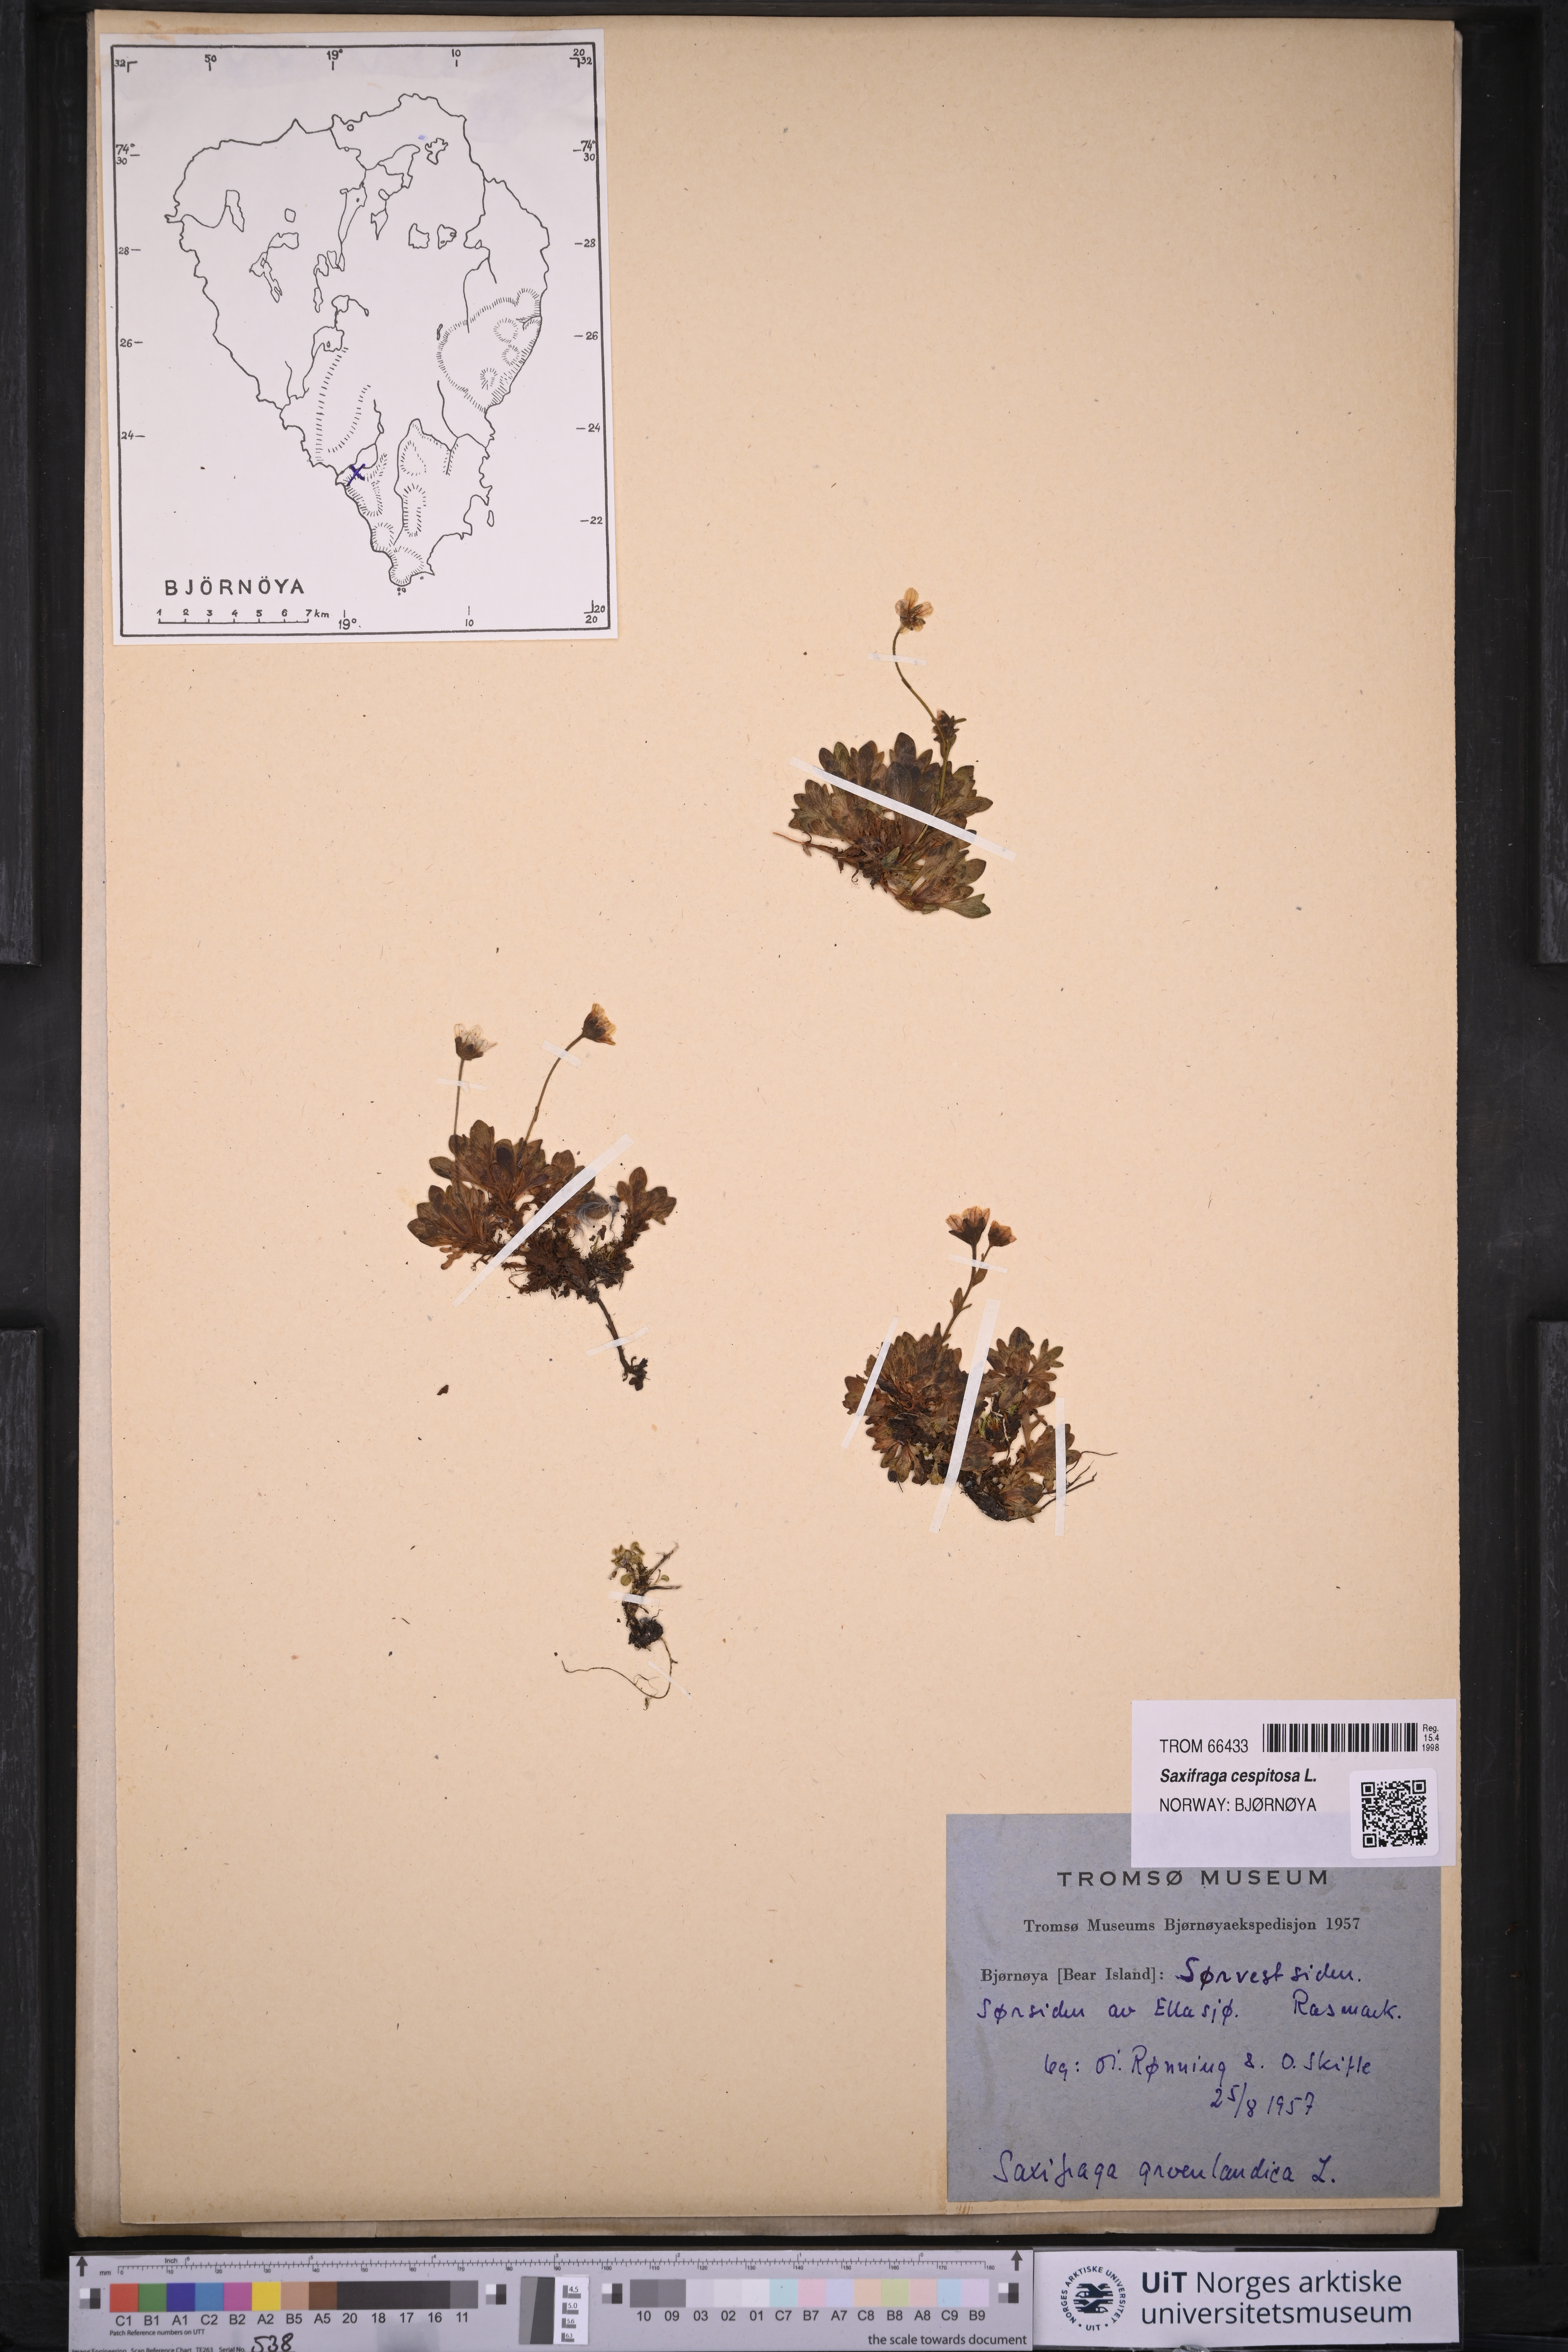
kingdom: Plantae
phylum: Tracheophyta
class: Magnoliopsida
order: Saxifragales
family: Saxifragaceae
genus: Saxifraga
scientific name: Saxifraga cespitosa
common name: Tufted saxifrage
